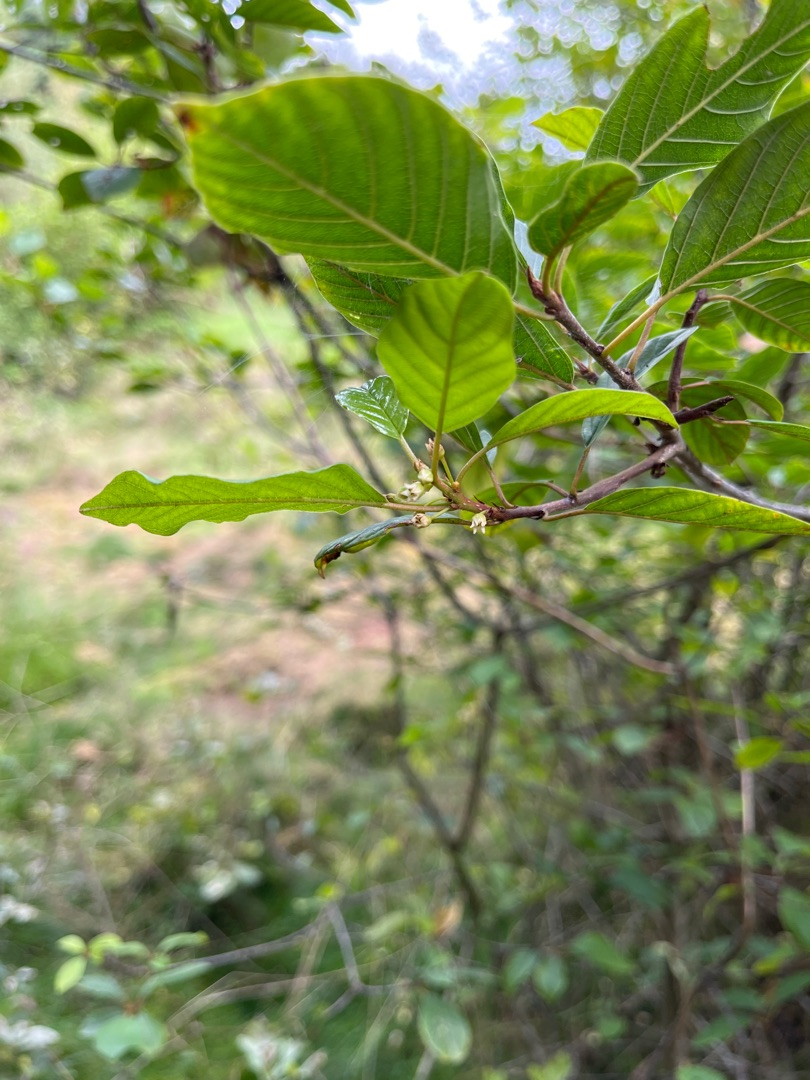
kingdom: Plantae
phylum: Tracheophyta
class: Magnoliopsida
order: Rosales
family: Rhamnaceae
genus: Frangula
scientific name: Frangula alnus
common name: Tørst
